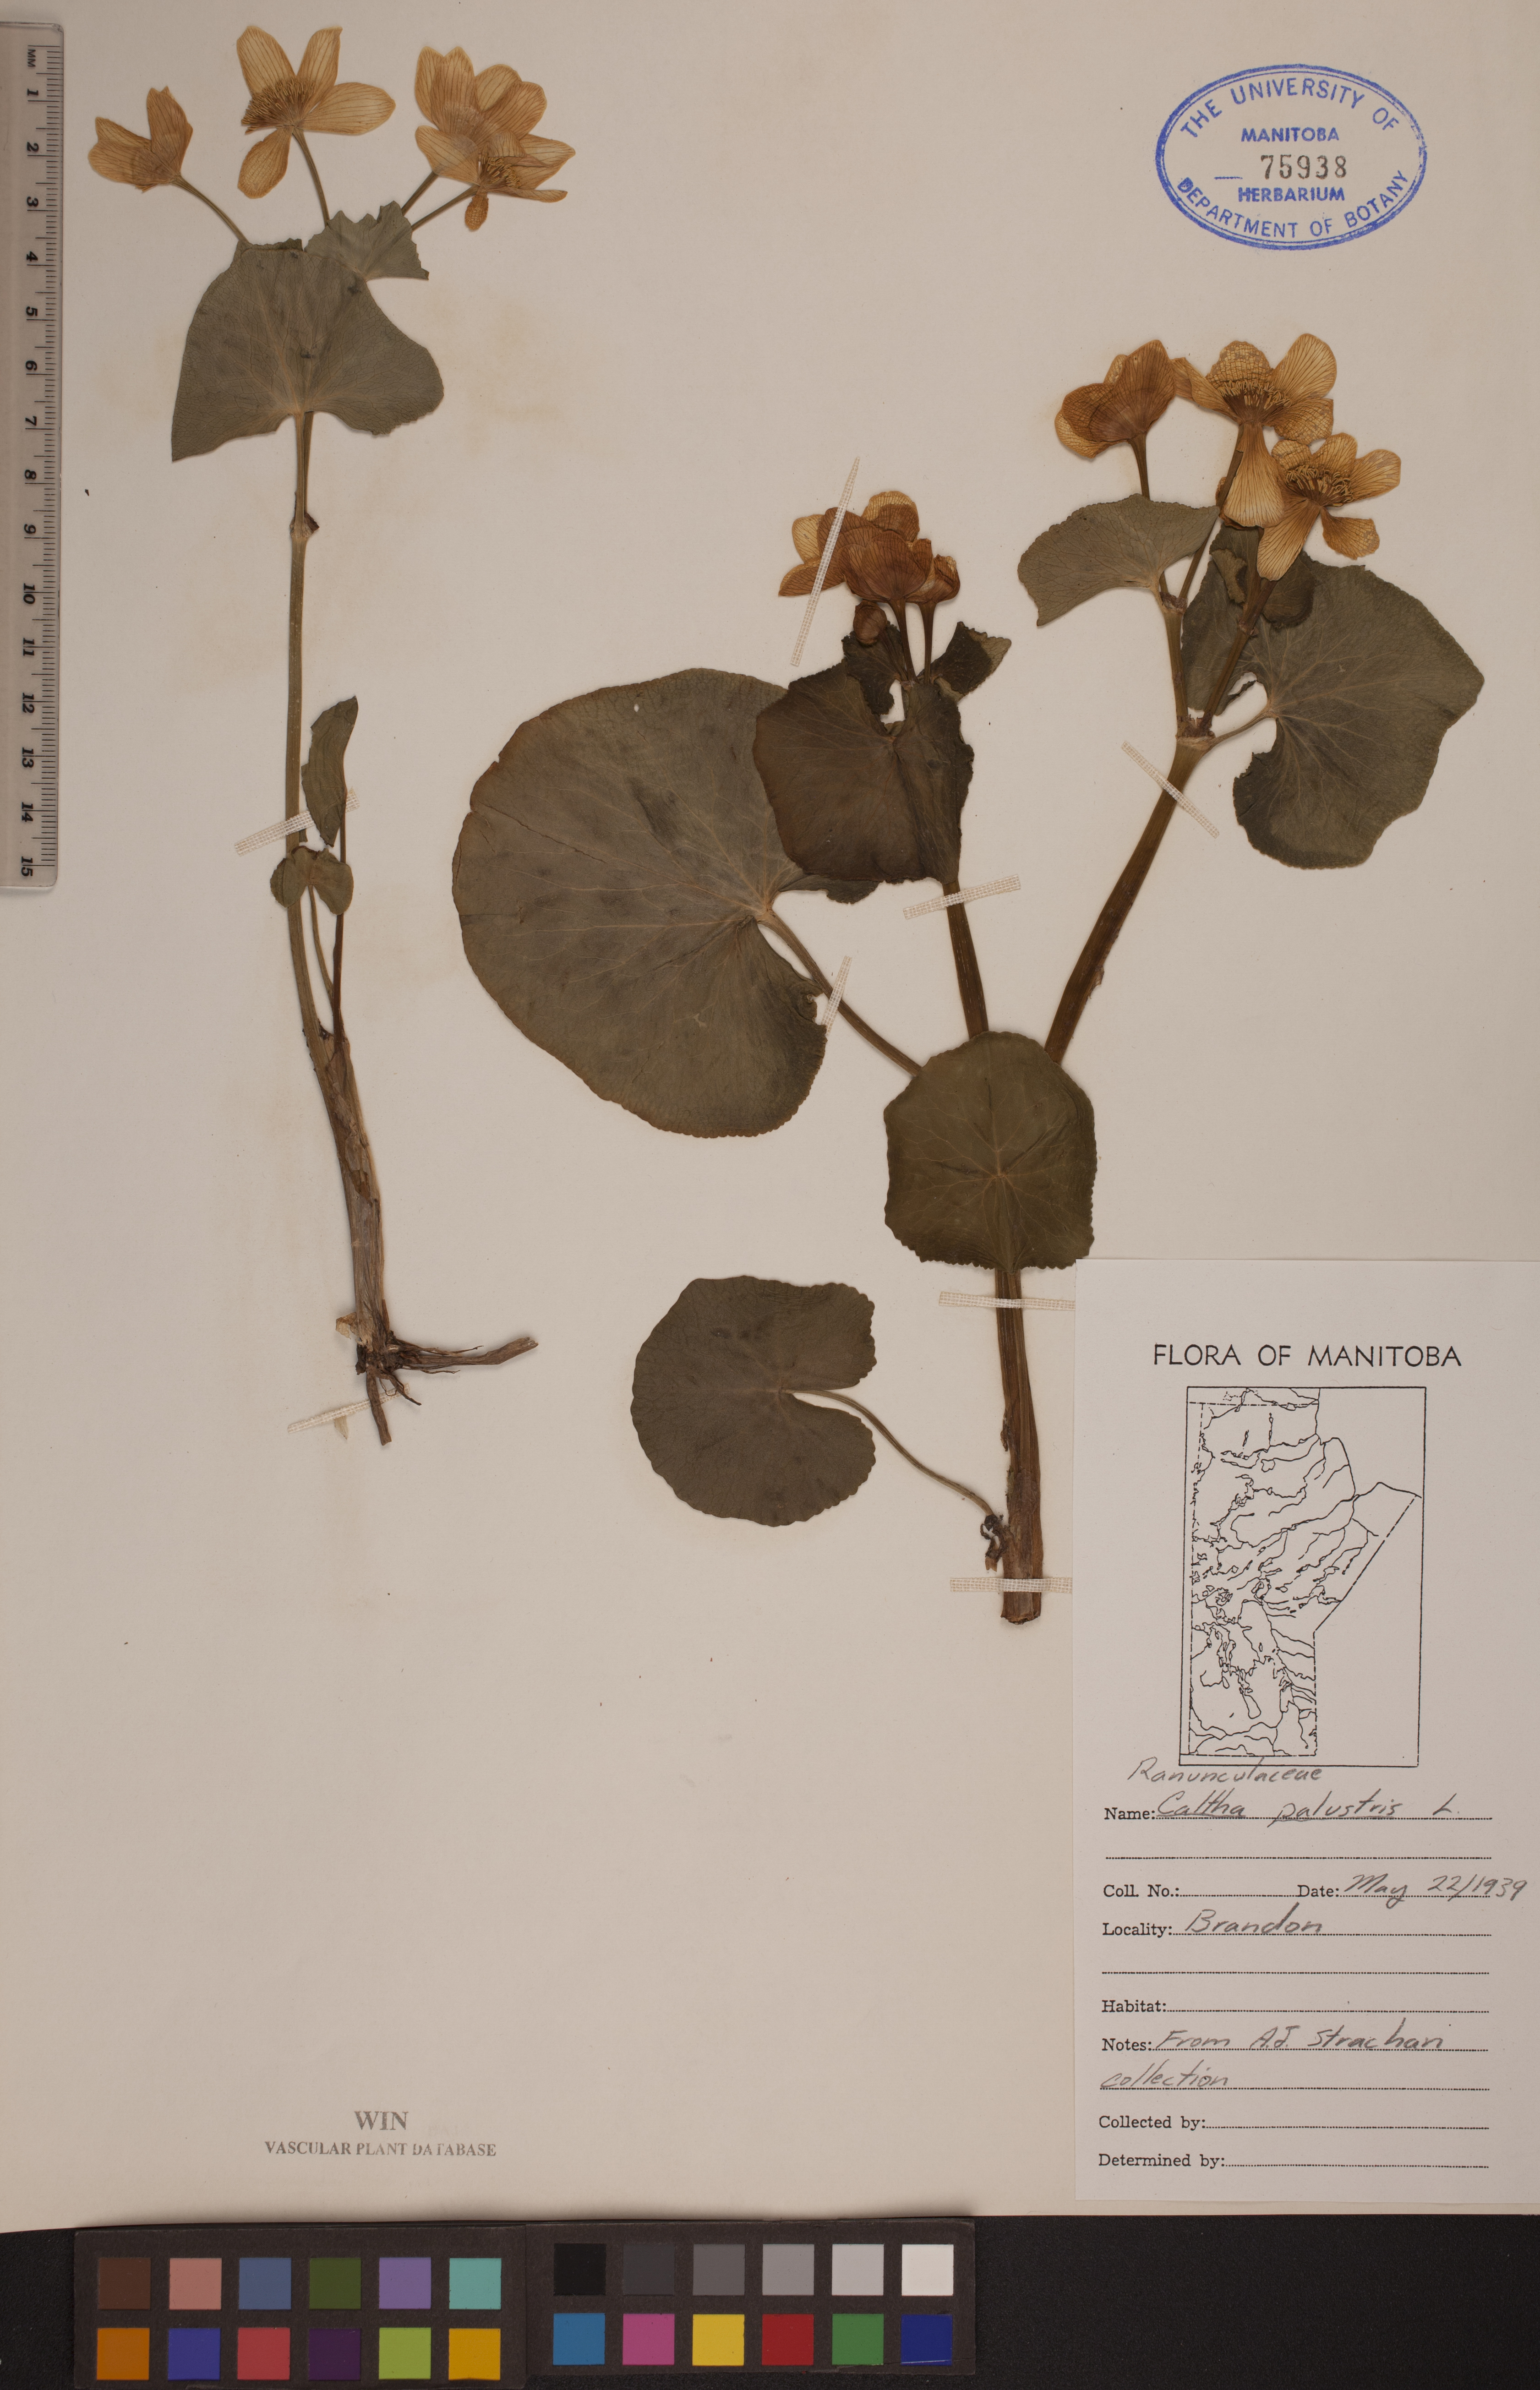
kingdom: Plantae
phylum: Tracheophyta
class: Magnoliopsida
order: Ranunculales
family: Ranunculaceae
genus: Caltha
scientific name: Caltha palustris
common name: Marsh marigold
